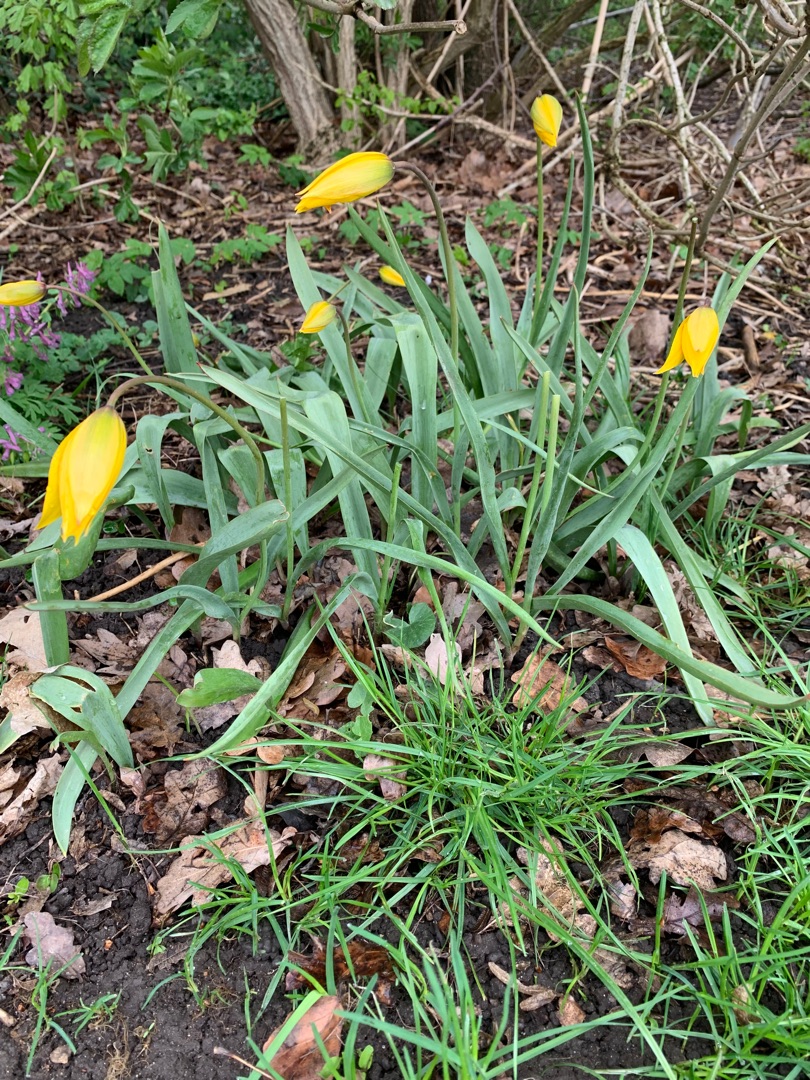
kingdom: Plantae
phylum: Tracheophyta
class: Liliopsida
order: Liliales
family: Liliaceae
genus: Tulipa
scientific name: Tulipa sylvestris
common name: Vild tulipan
